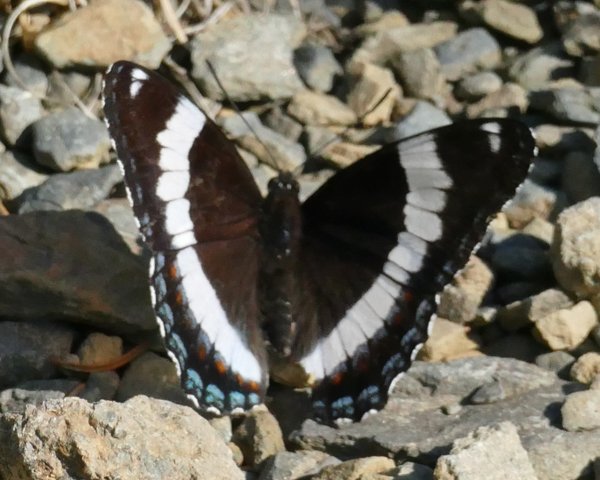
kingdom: Animalia
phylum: Arthropoda
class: Insecta
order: Lepidoptera
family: Nymphalidae
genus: Limenitis
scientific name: Limenitis arthemis
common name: Red-spotted Admiral
